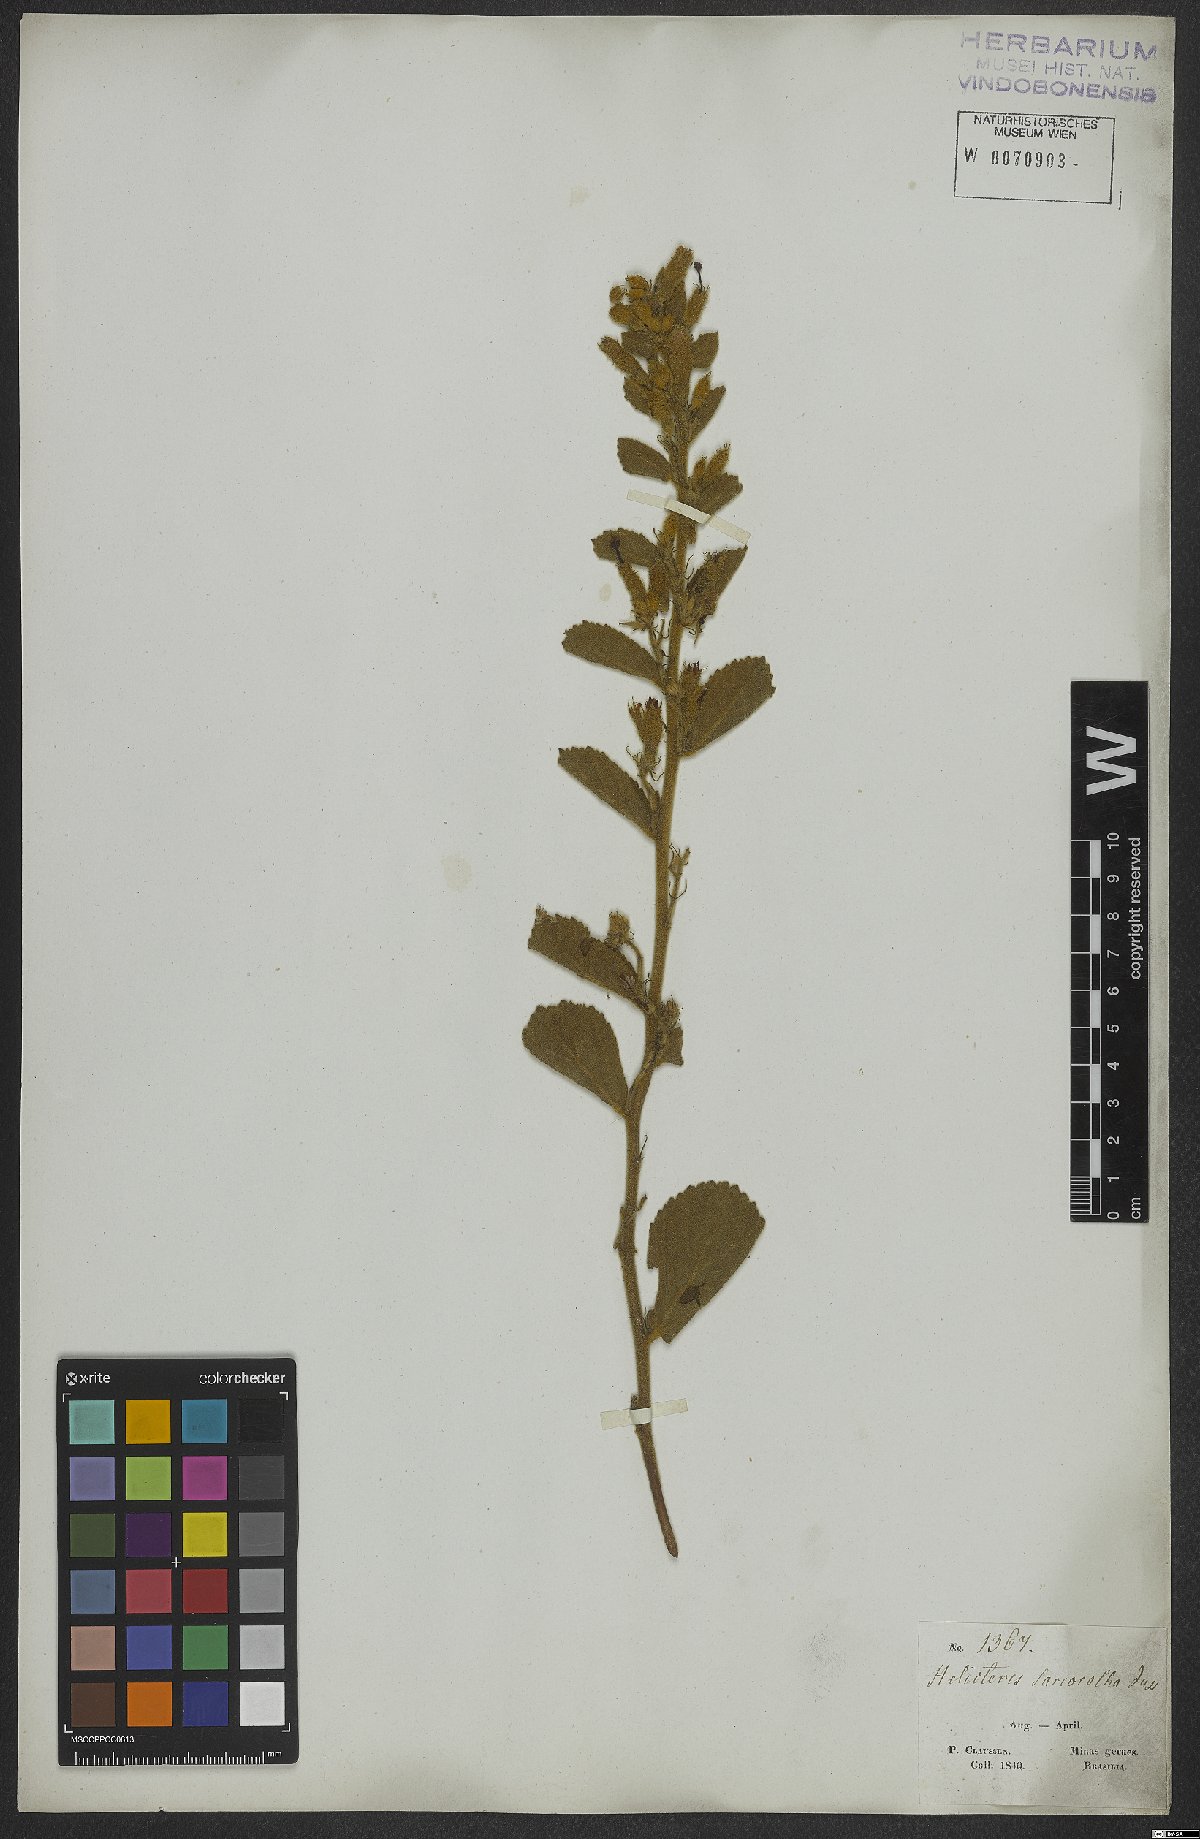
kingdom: Plantae
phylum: Tracheophyta
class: Magnoliopsida
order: Malvales
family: Malvaceae
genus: Helicteres
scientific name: Helicteres sacarolha
